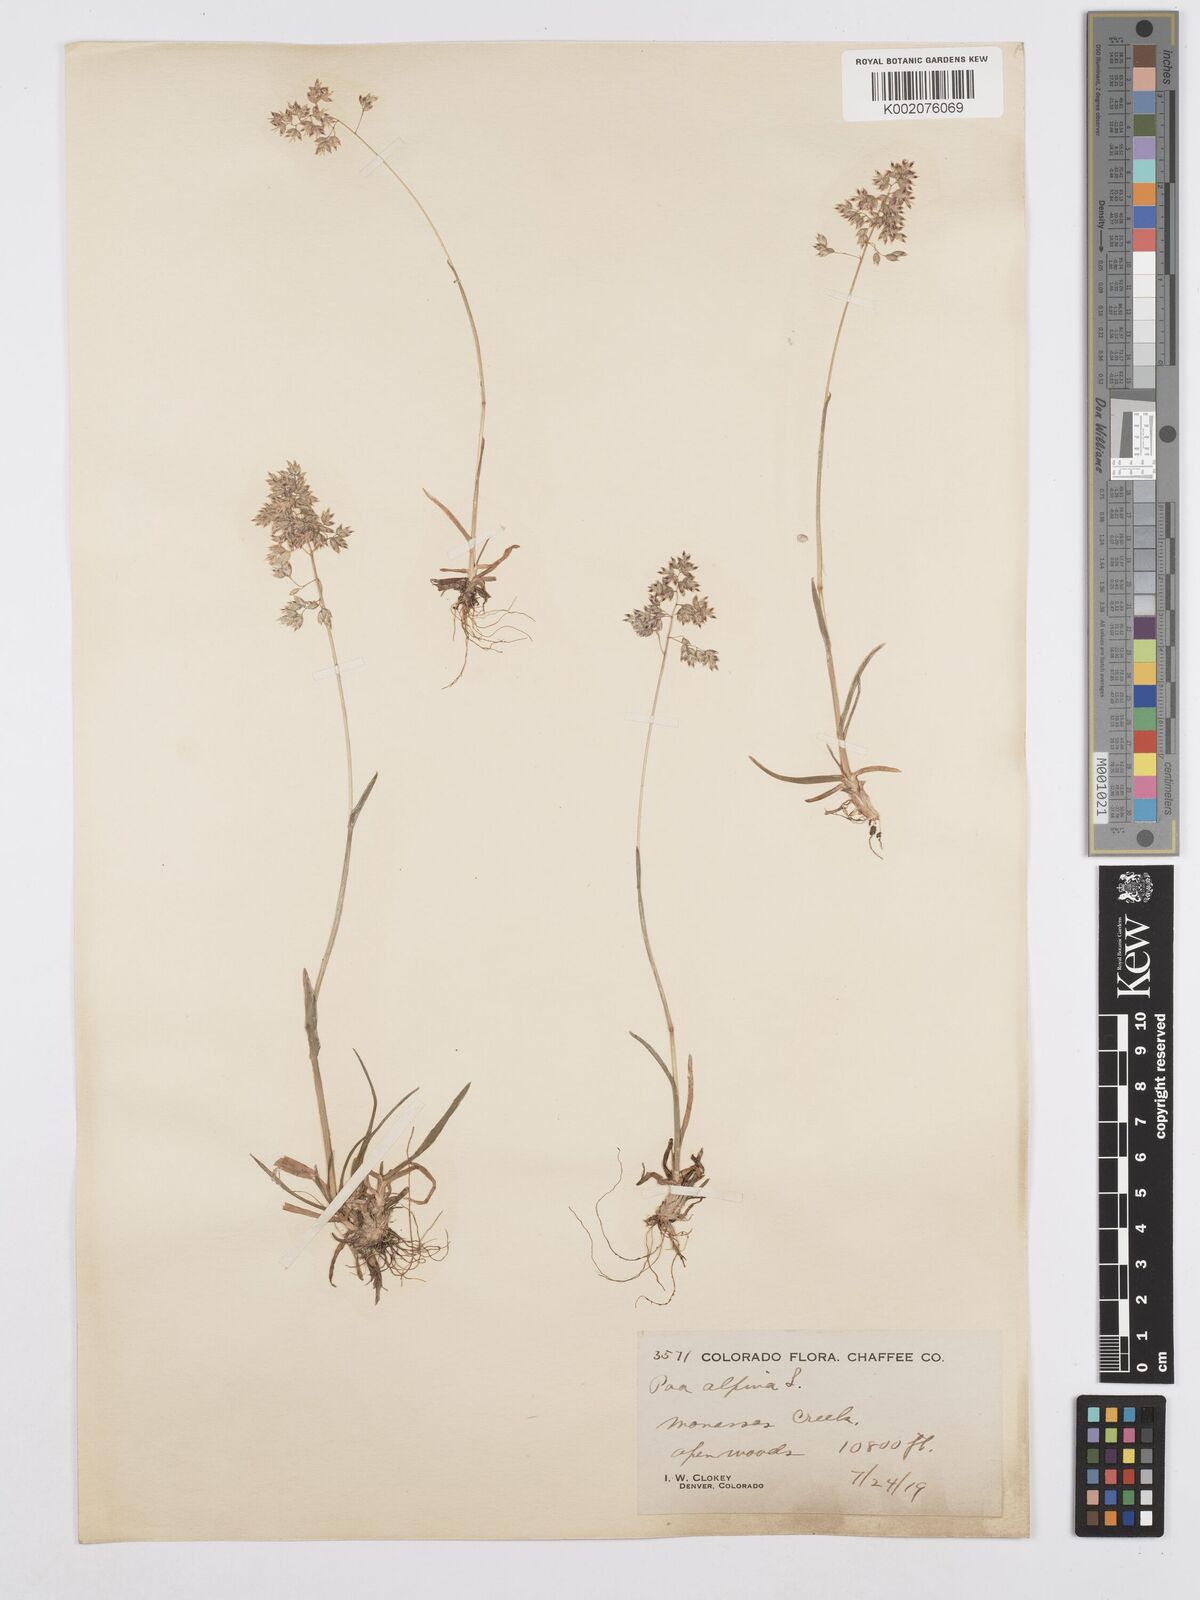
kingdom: Plantae
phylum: Tracheophyta
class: Liliopsida
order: Poales
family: Poaceae
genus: Poa
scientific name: Poa alpina
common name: Alpine bluegrass
